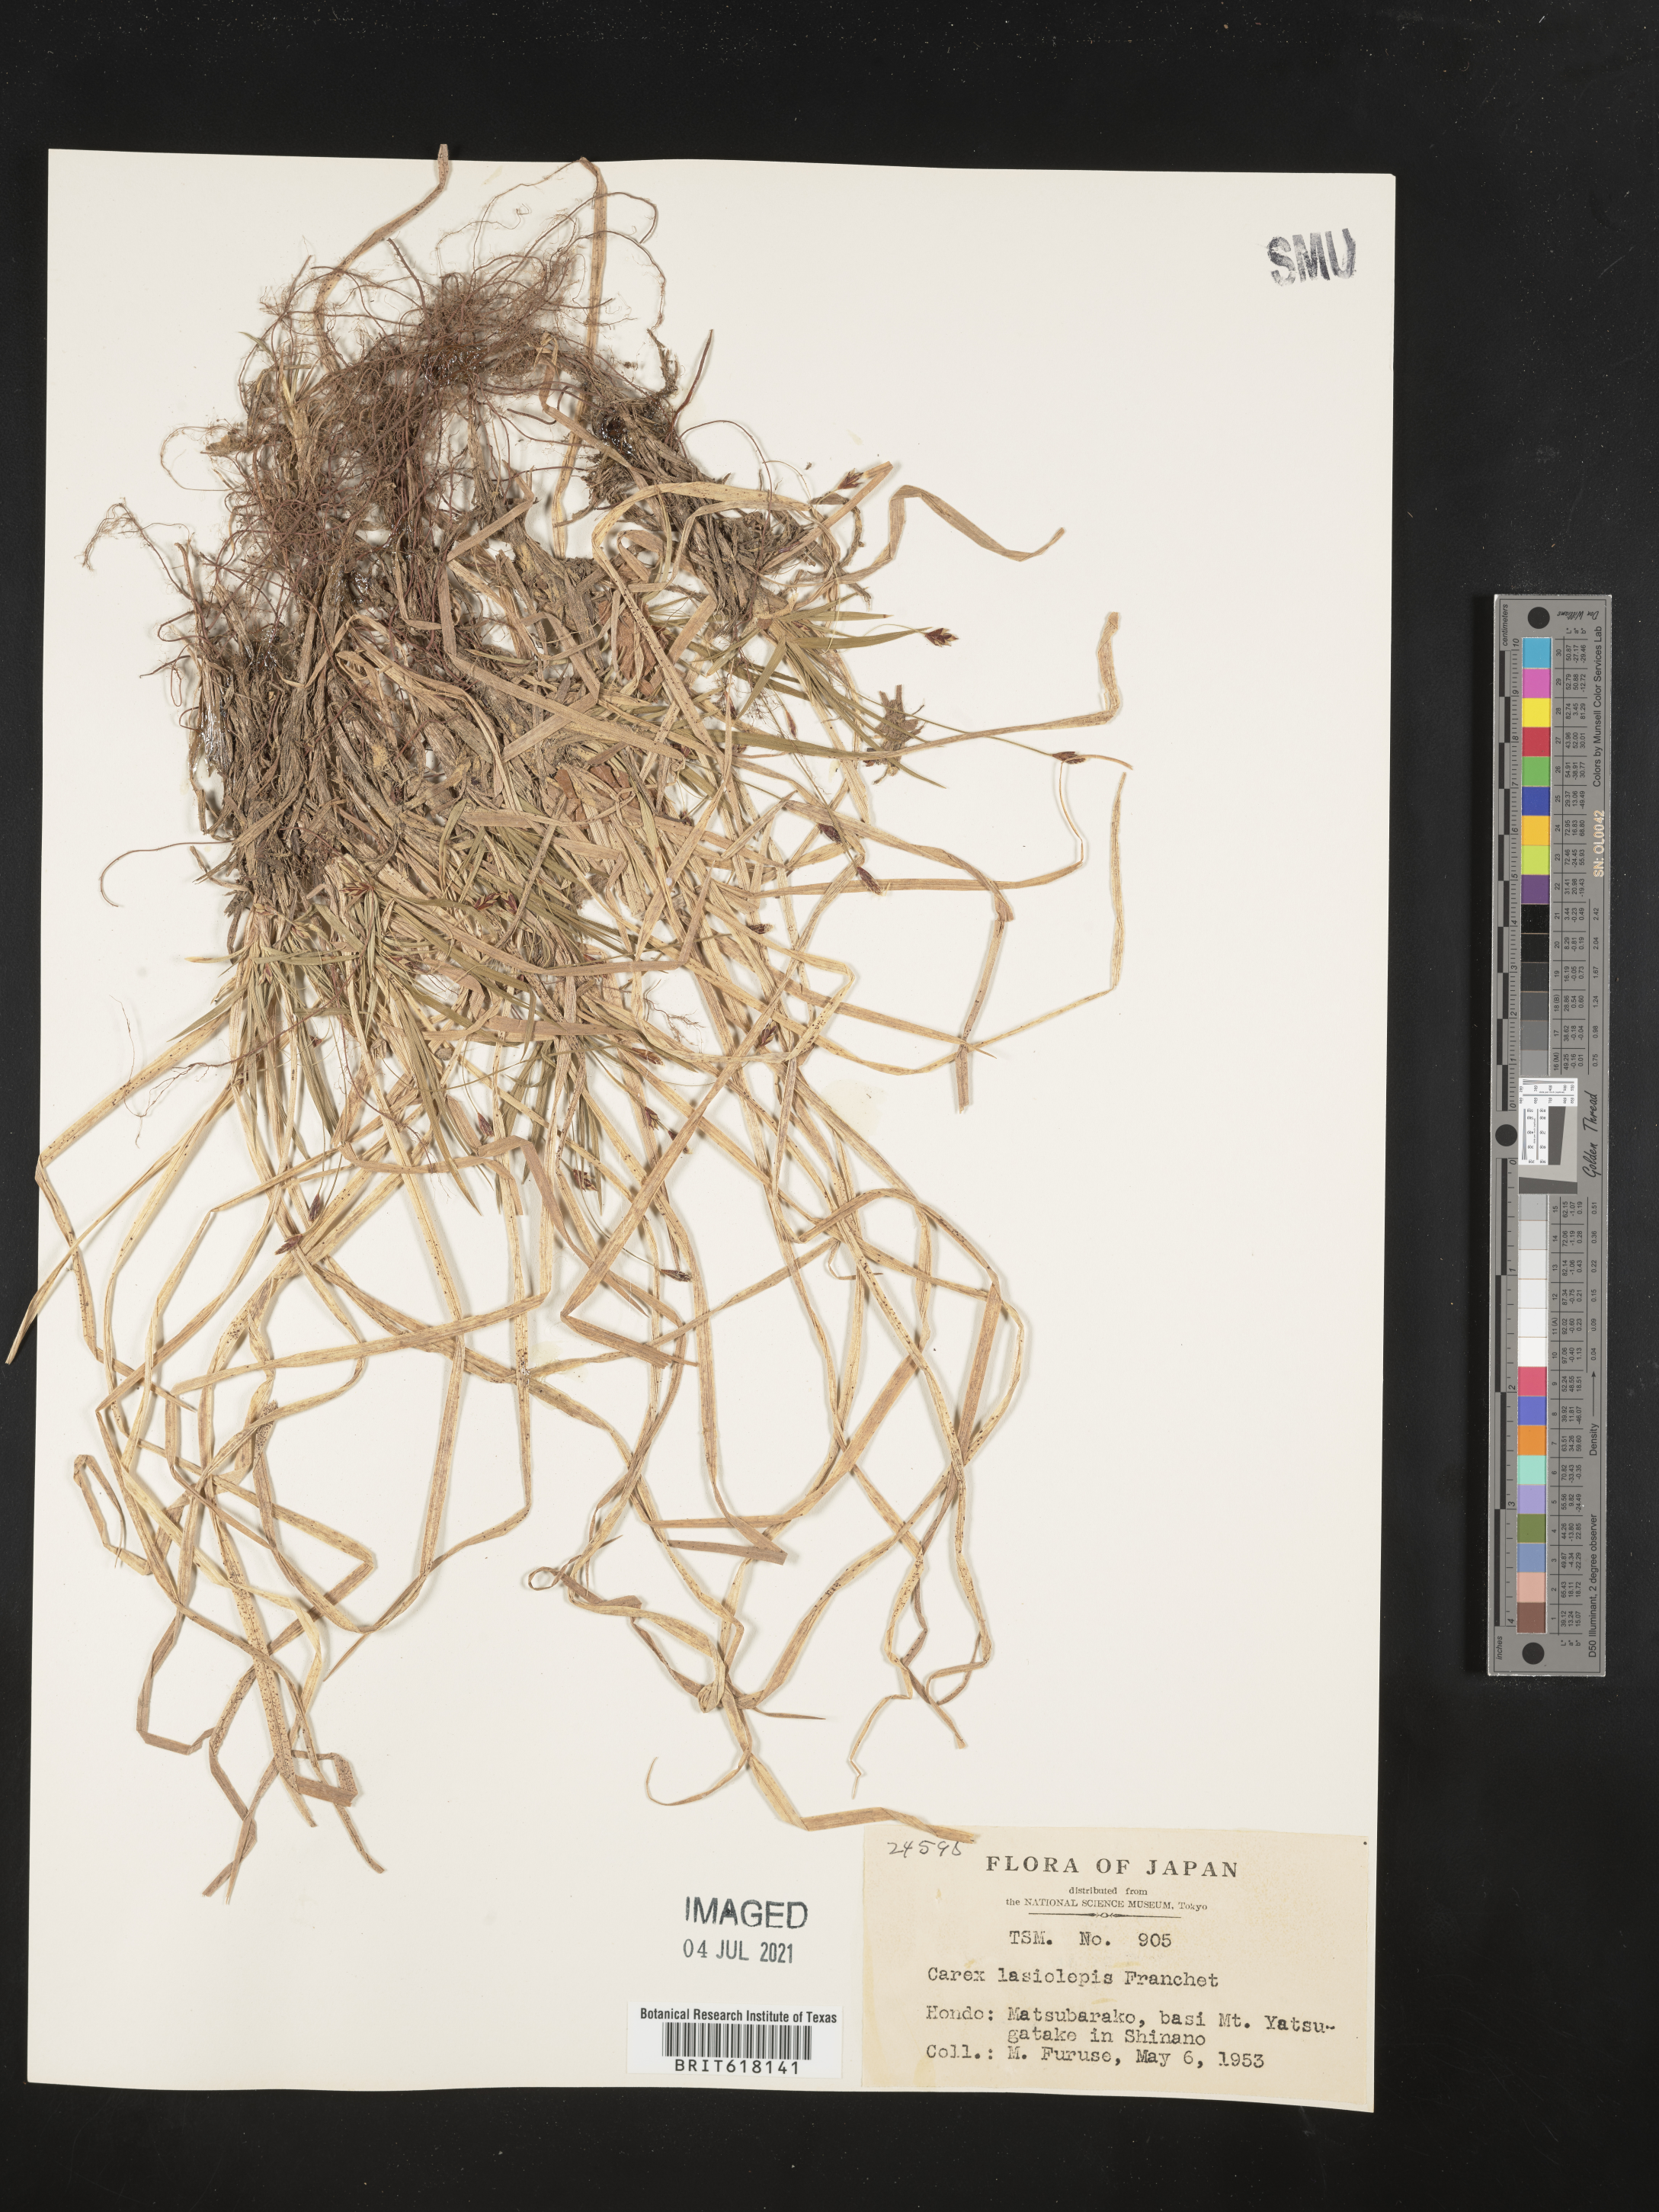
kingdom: Plantae
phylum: Tracheophyta
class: Liliopsida
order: Poales
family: Cyperaceae
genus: Carex
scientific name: Carex lasiolepis
